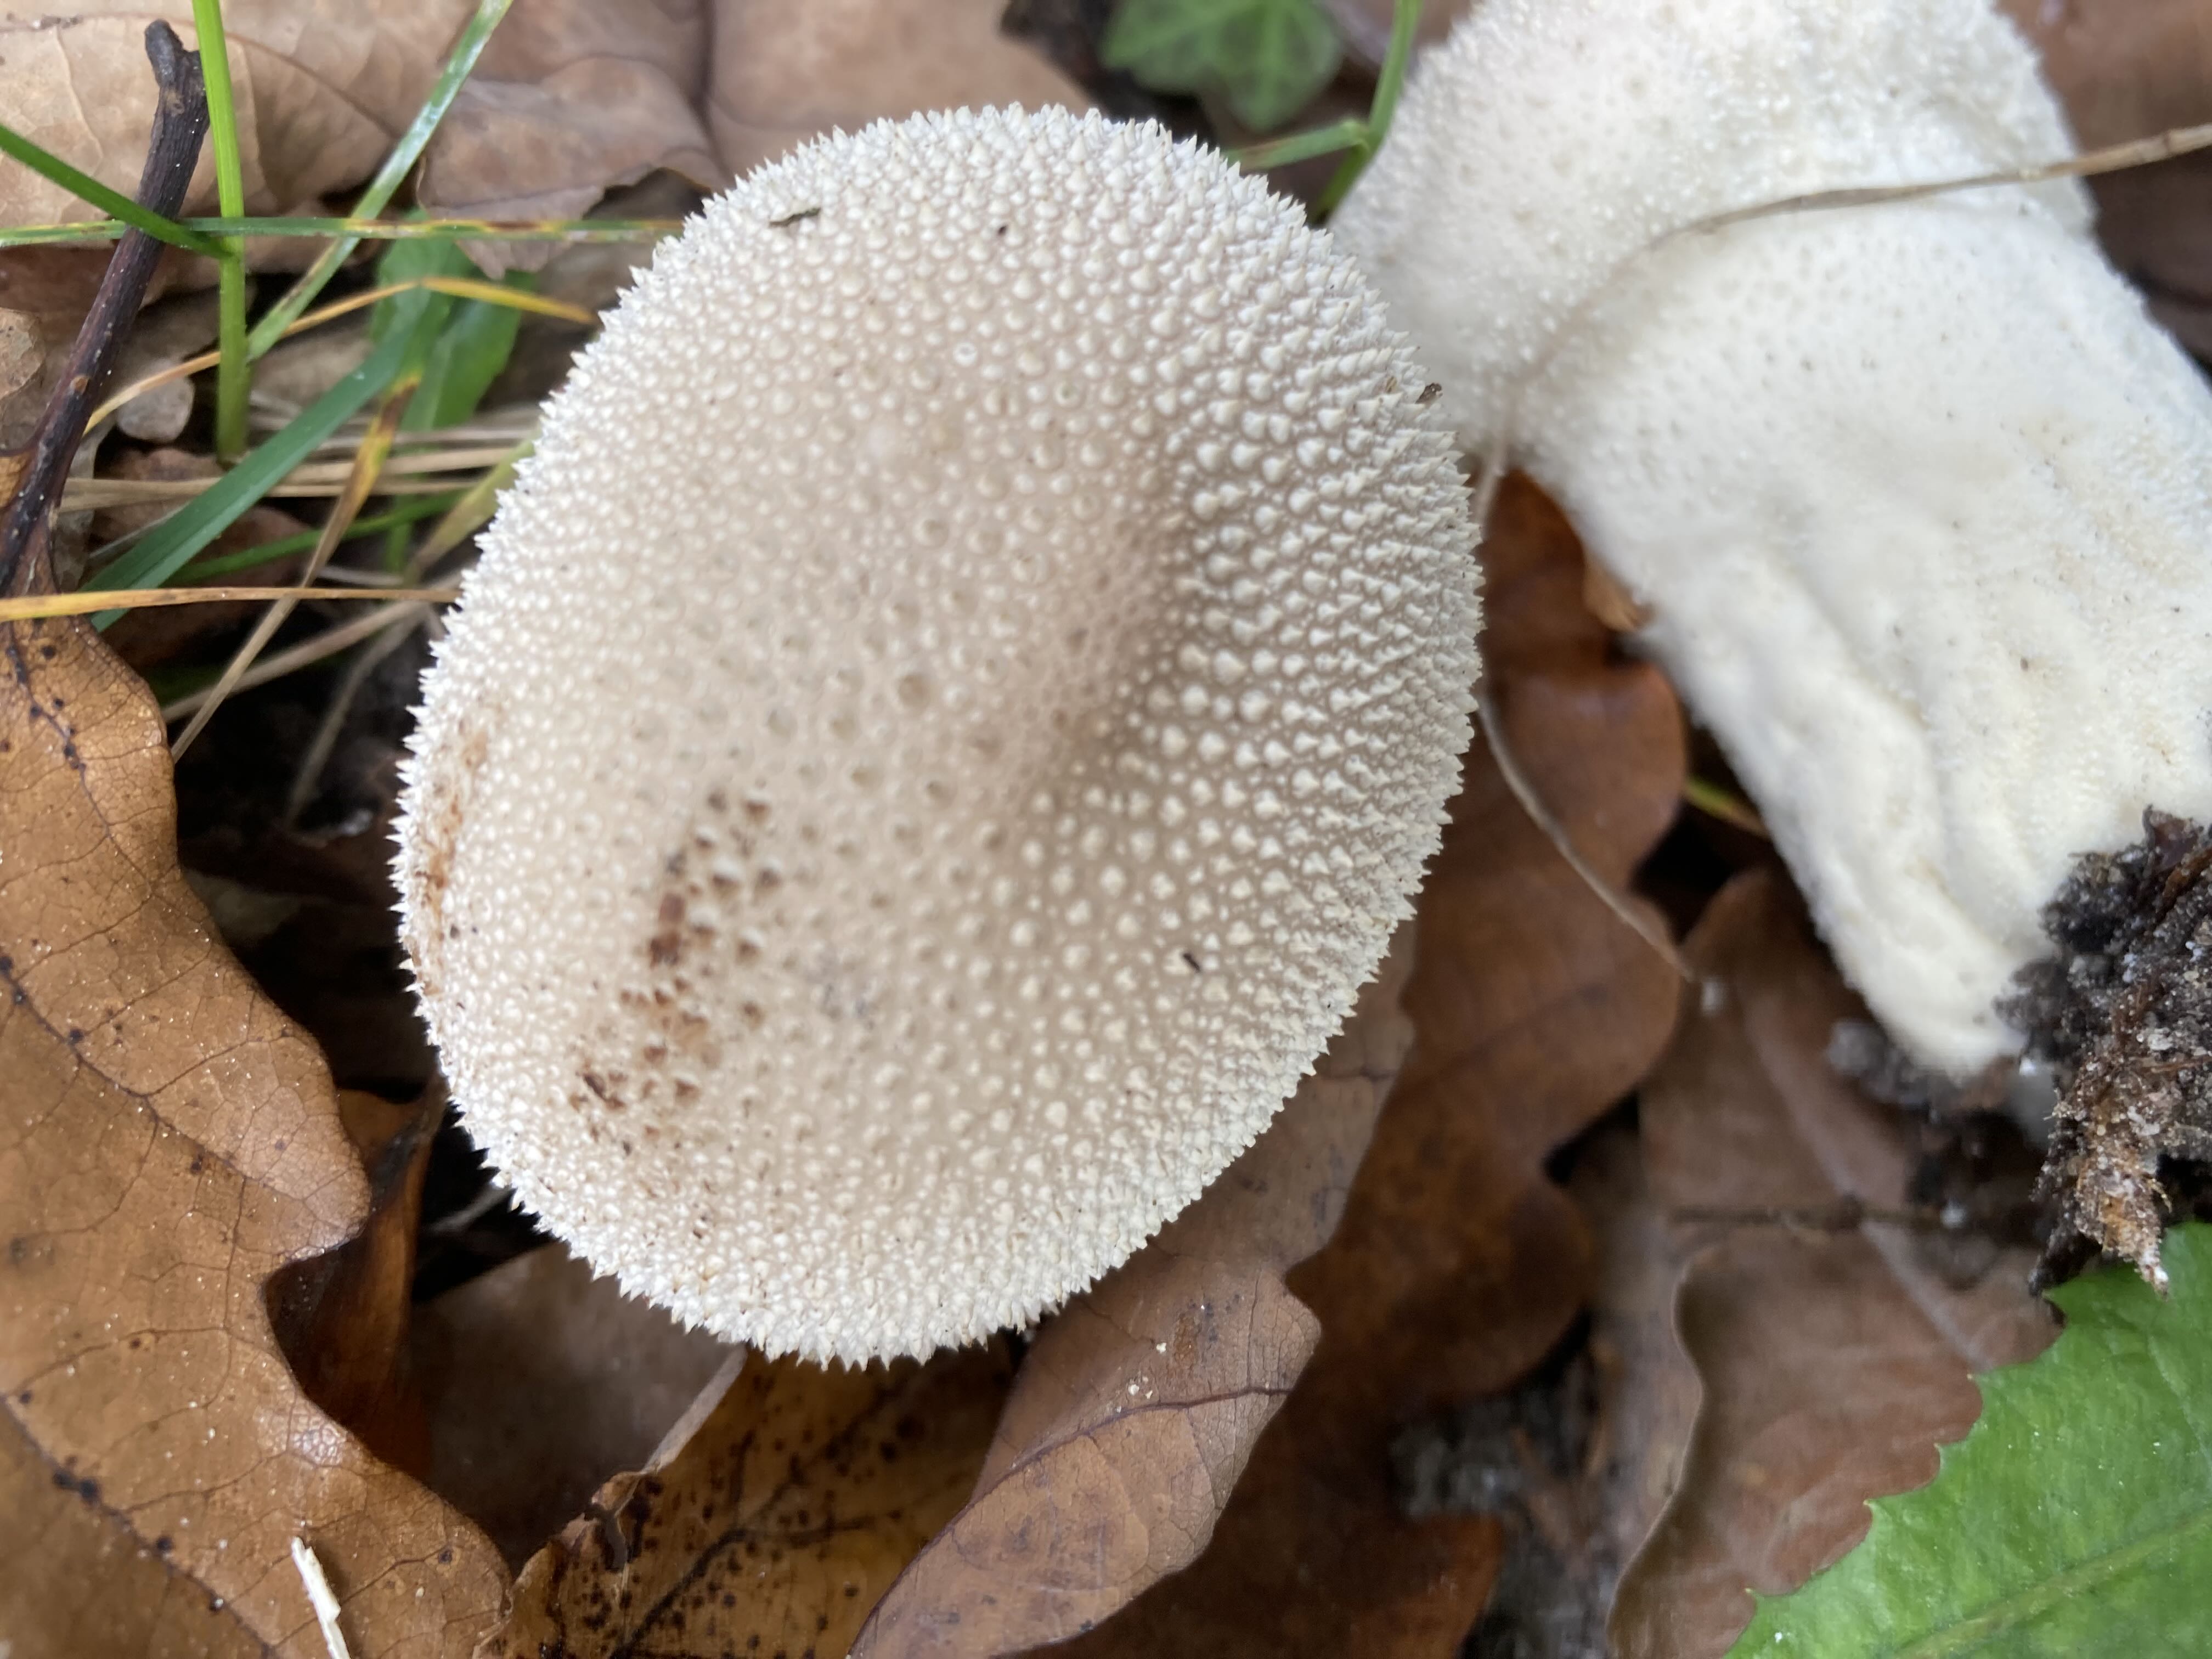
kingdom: Fungi
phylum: Basidiomycota
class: Agaricomycetes
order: Agaricales
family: Lycoperdaceae
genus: Lycoperdon
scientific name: Lycoperdon perlatum
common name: krystal-støvbold
